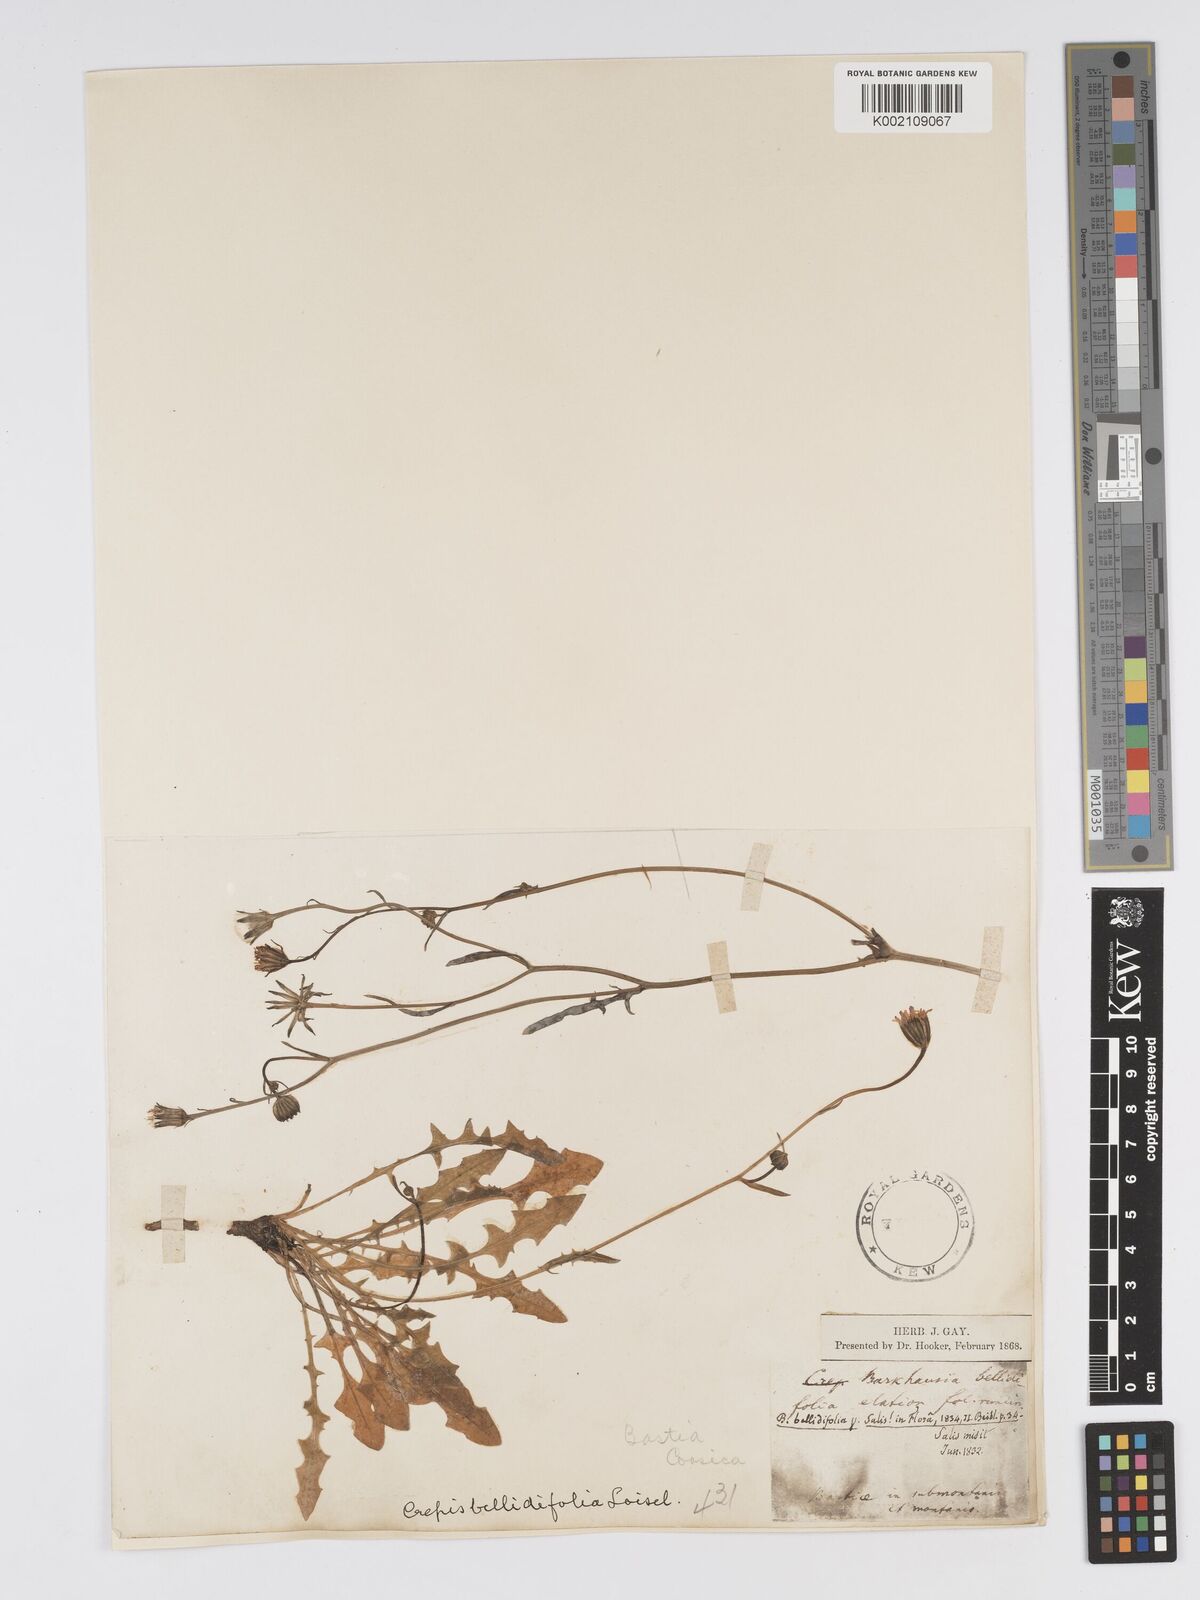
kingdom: Plantae
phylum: Tracheophyta
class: Magnoliopsida
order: Asterales
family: Asteraceae
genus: Crepis
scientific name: Crepis bellidifolia
